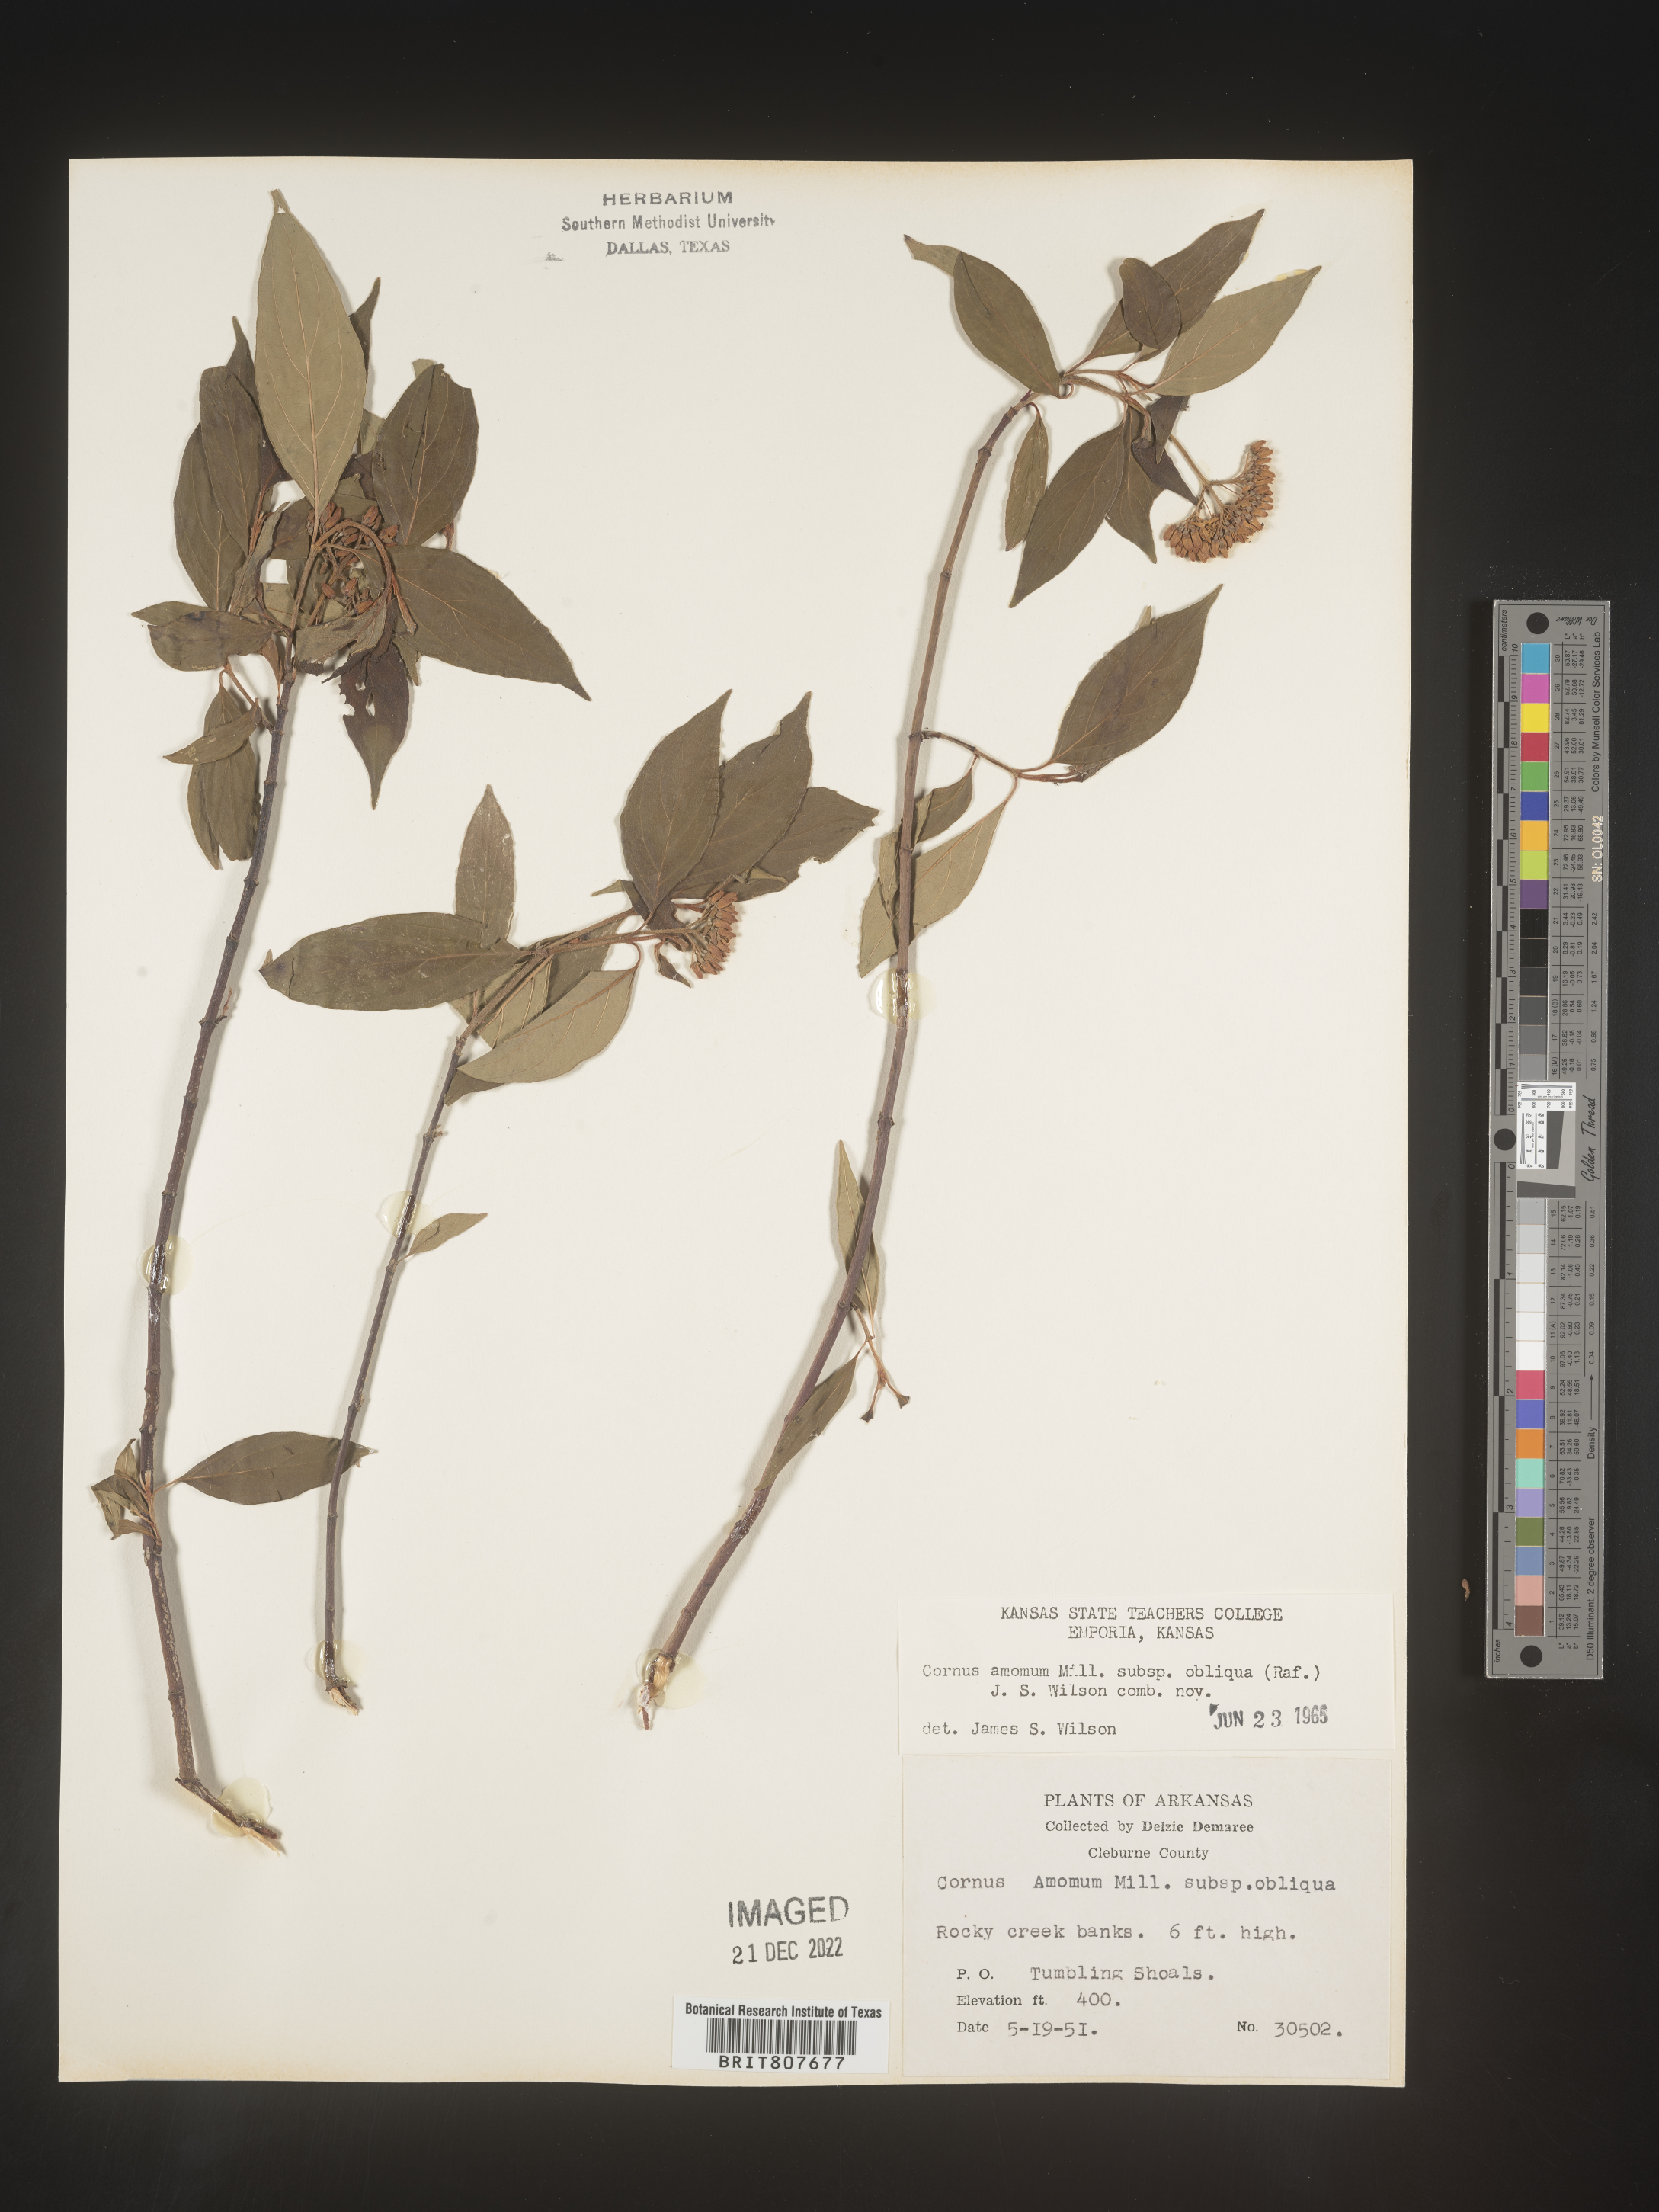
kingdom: Plantae
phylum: Tracheophyta
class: Magnoliopsida
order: Cornales
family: Cornaceae
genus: Cornus
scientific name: Cornus obliqua
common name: Pale dogwood
